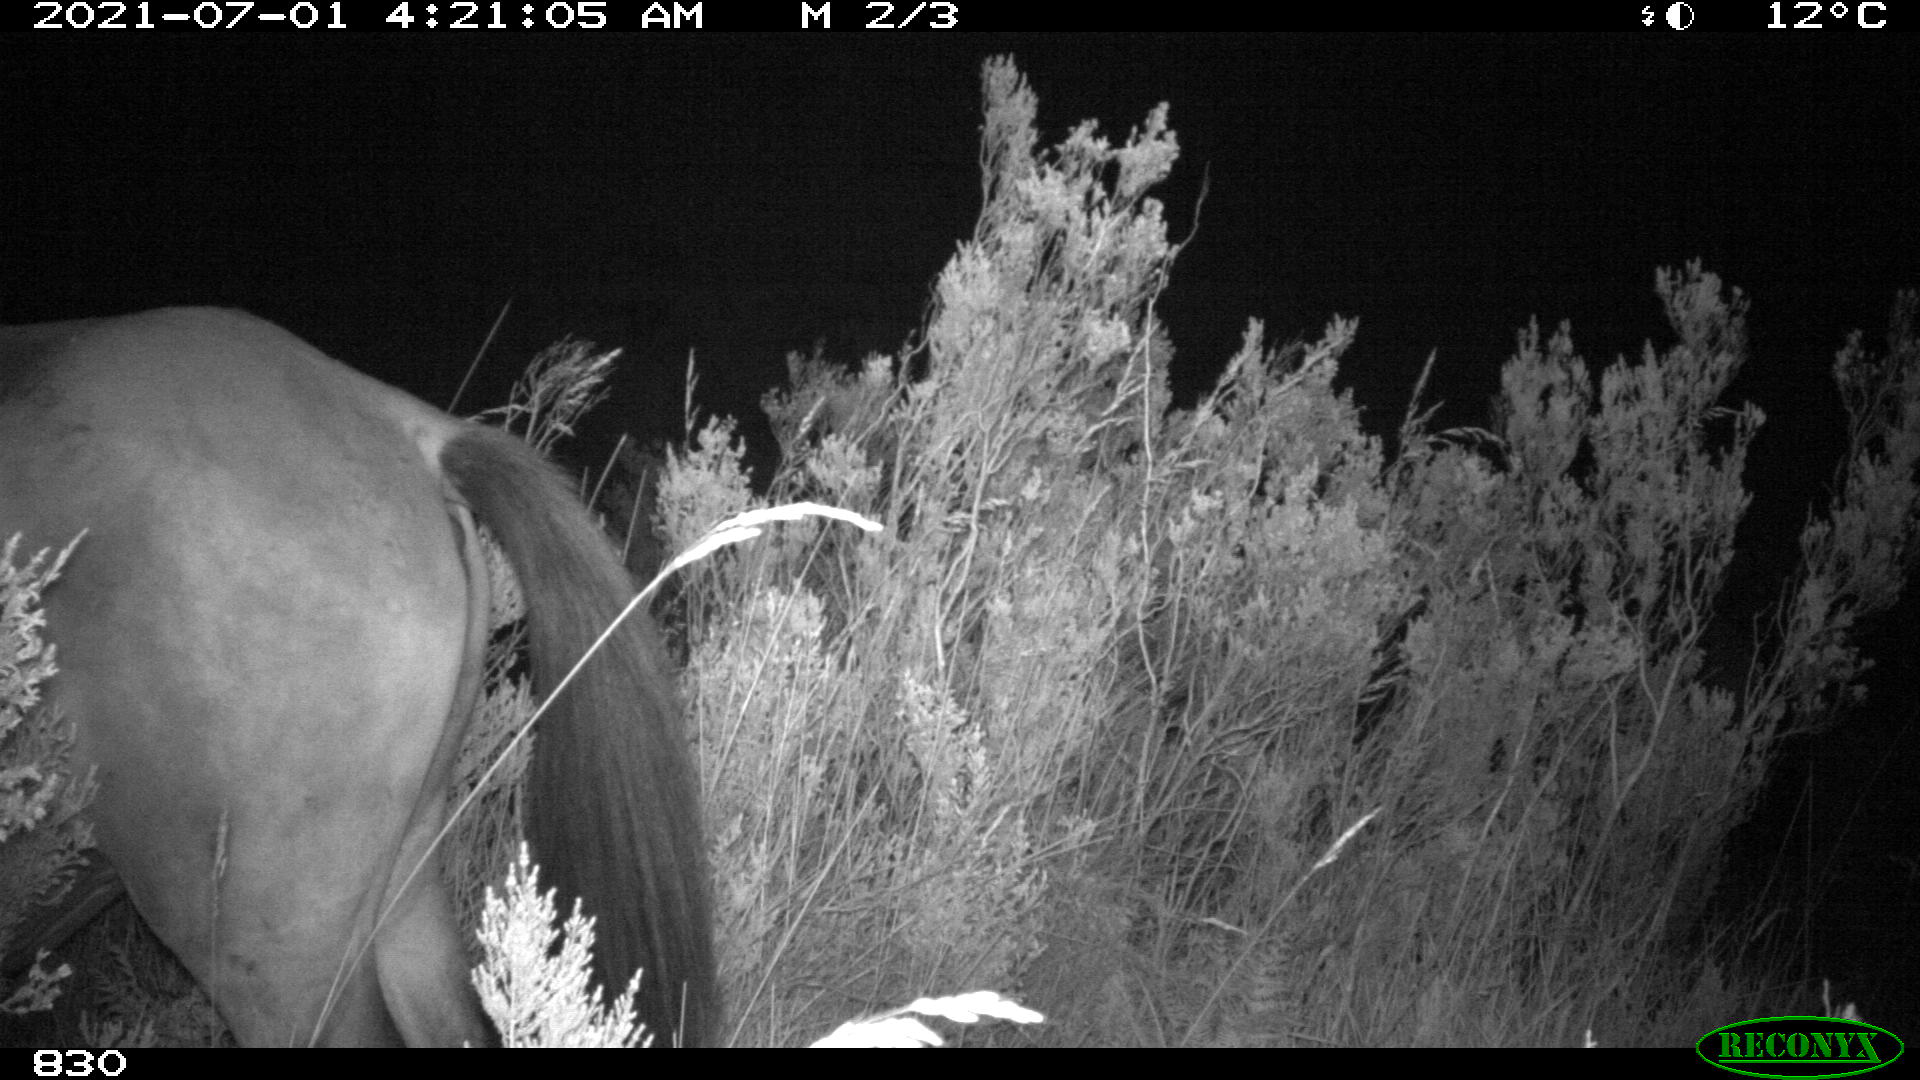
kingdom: Animalia
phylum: Chordata
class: Mammalia
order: Perissodactyla
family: Equidae
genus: Equus
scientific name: Equus caballus
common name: Horse
